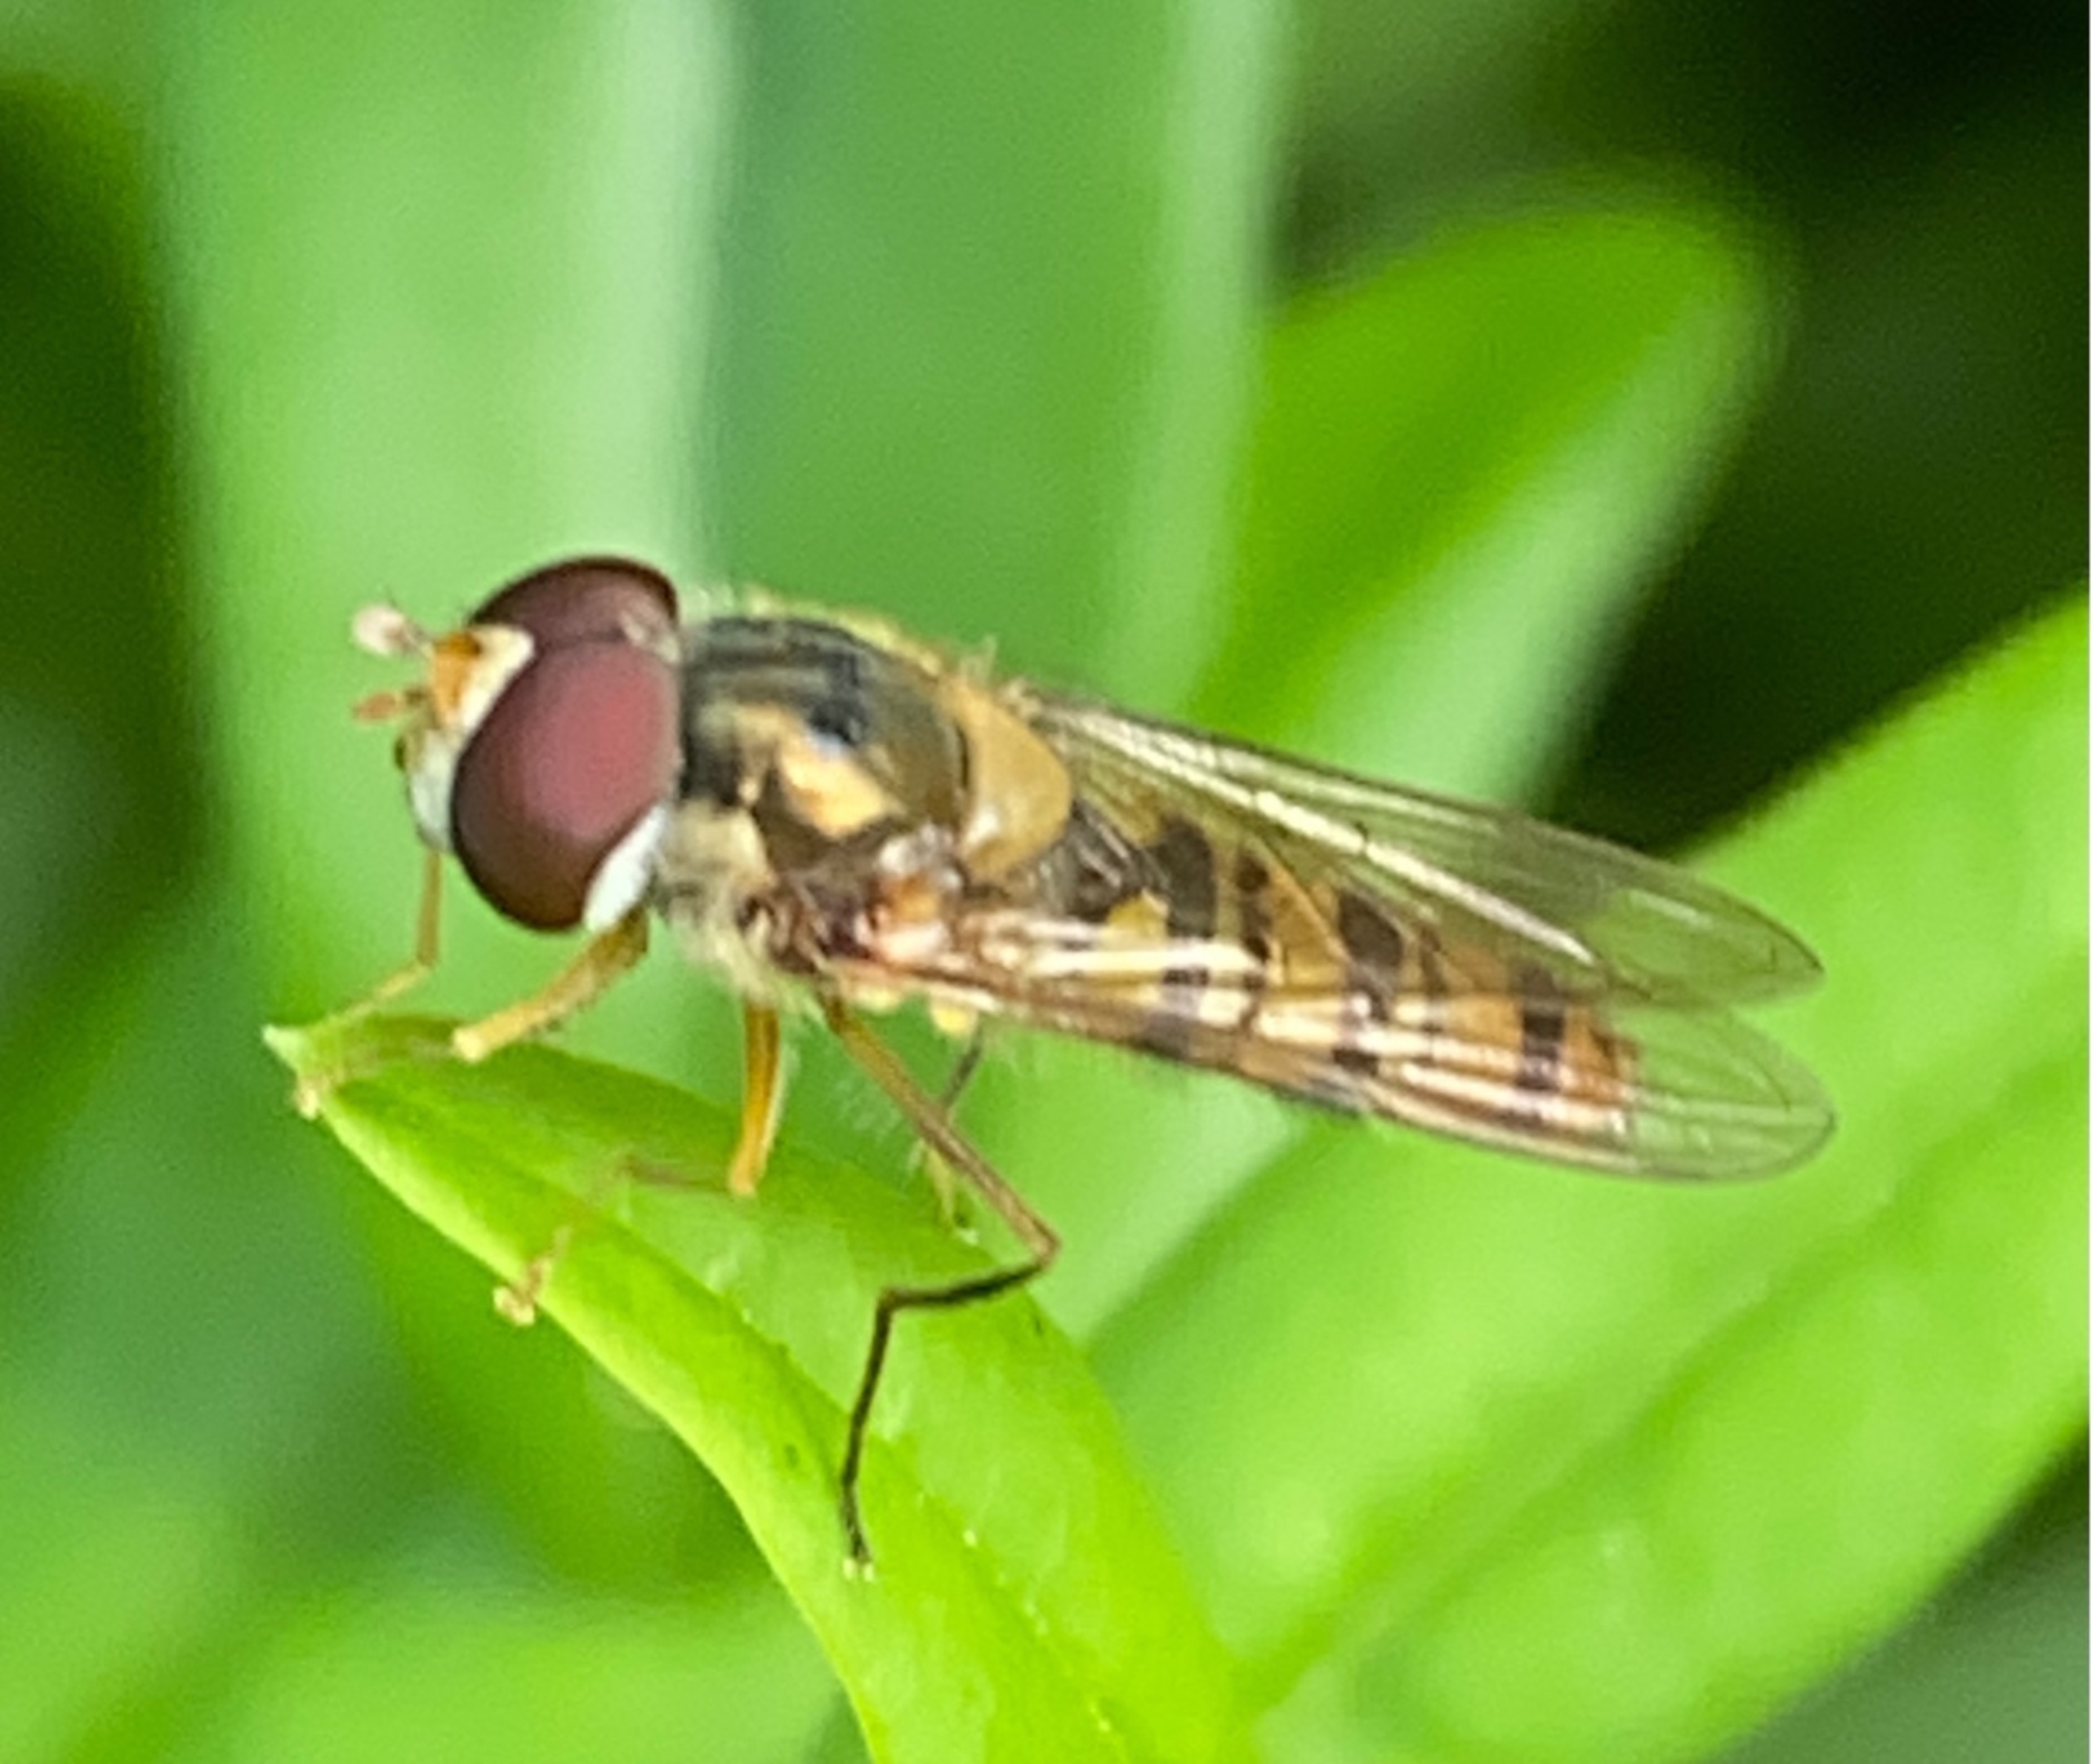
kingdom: Animalia
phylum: Arthropoda
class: Insecta
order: Diptera
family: Syrphidae
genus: Episyrphus
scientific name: Episyrphus balteatus
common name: Dobbeltbåndet svirreflue
